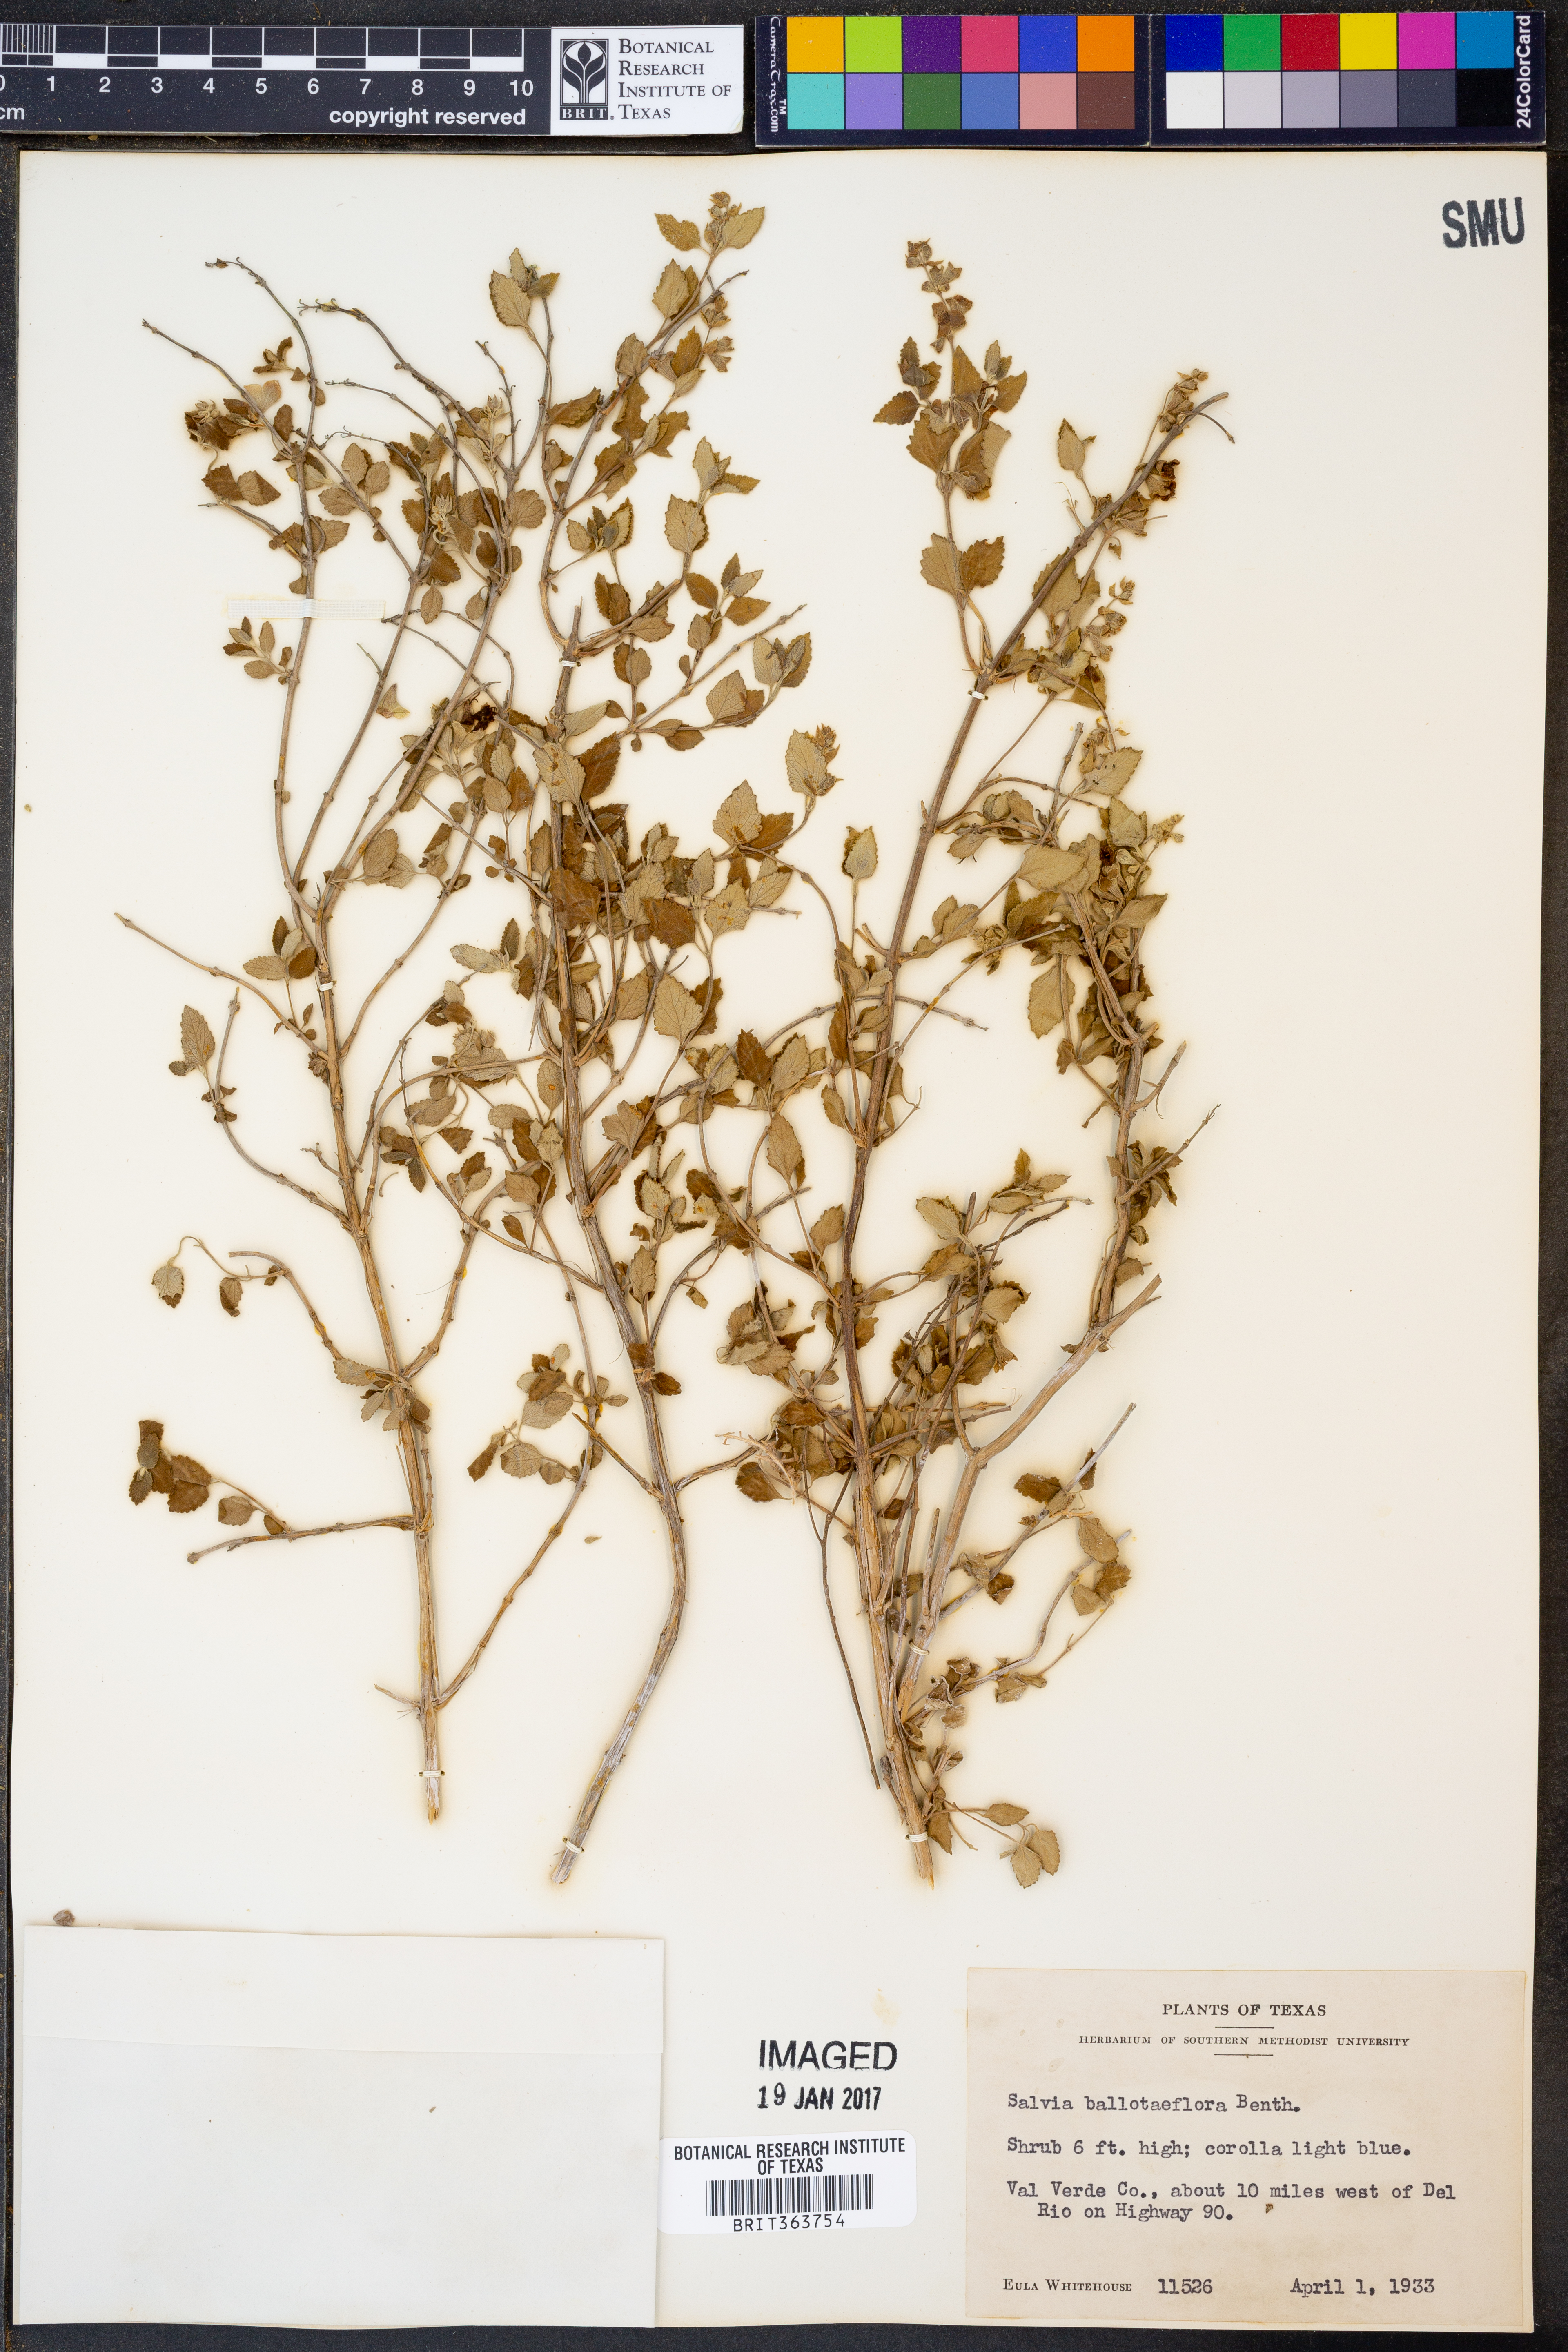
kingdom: Plantae
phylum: Tracheophyta
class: Magnoliopsida
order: Lamiales
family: Lamiaceae
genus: Salvia
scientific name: Salvia ballotiflora
